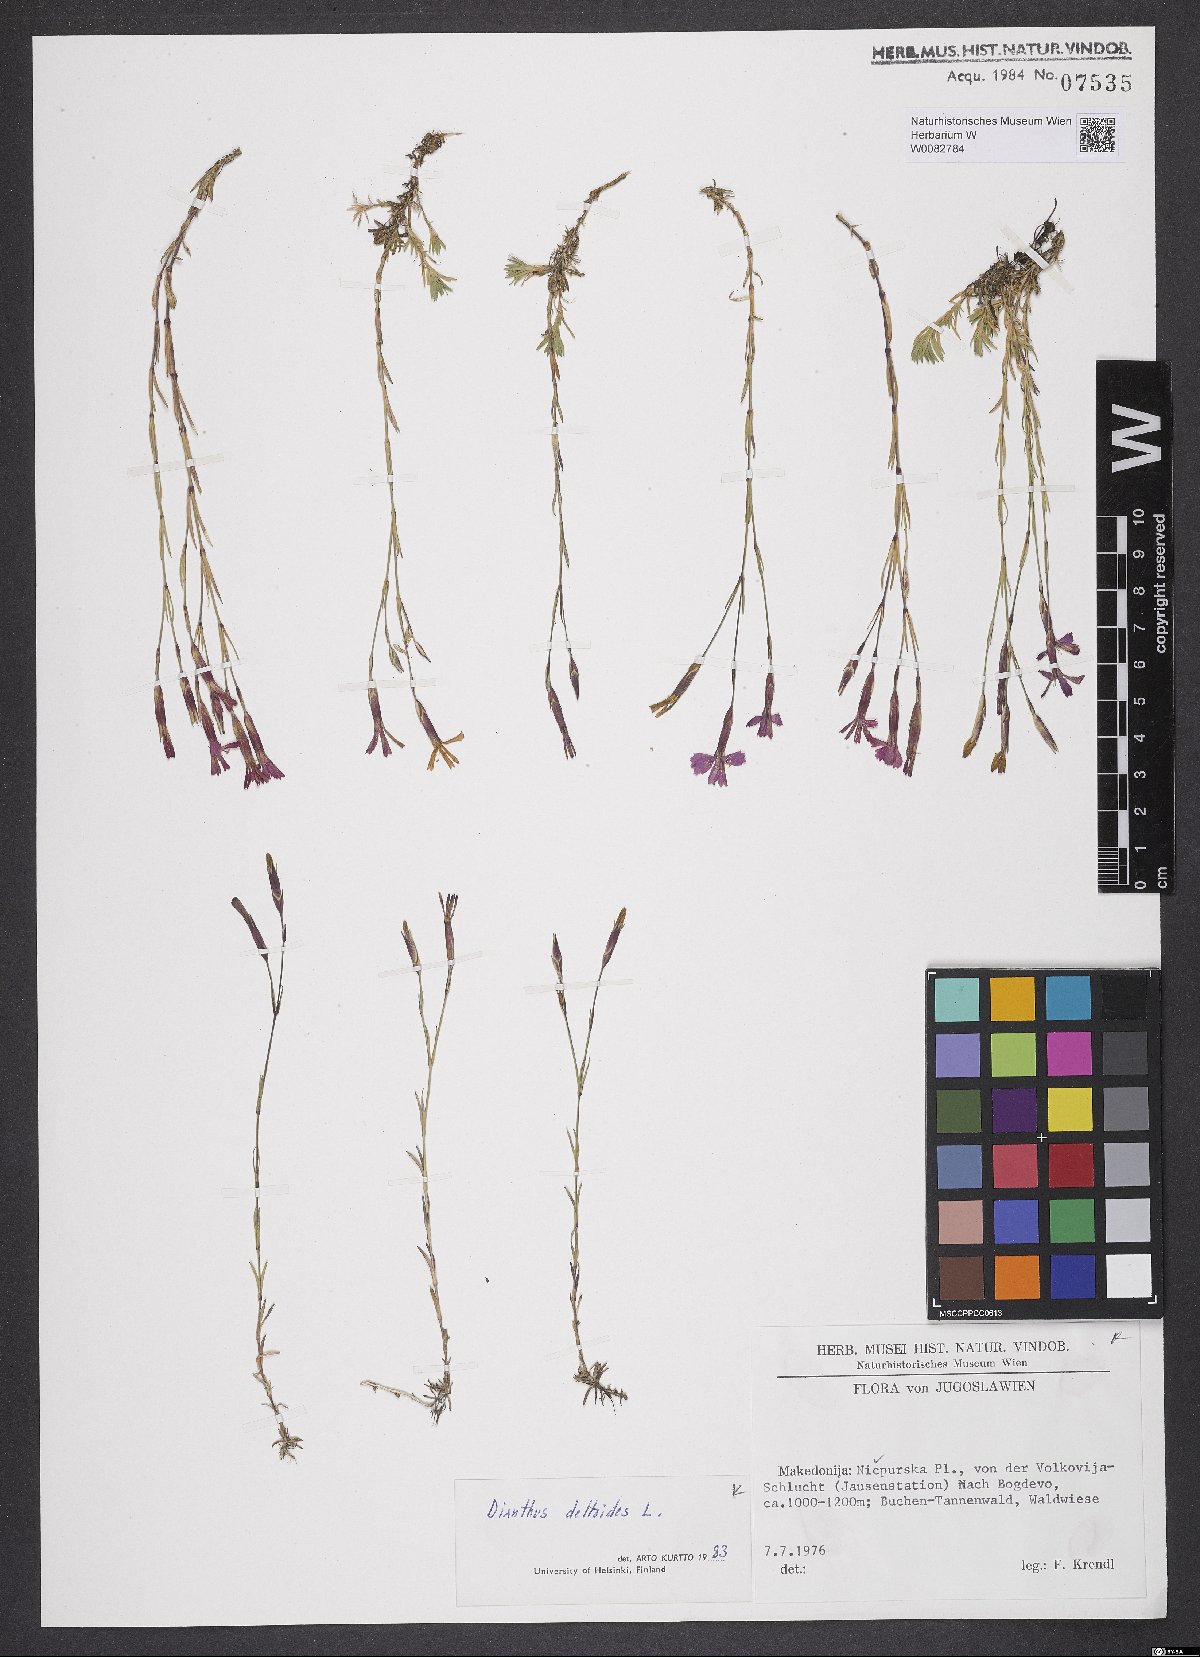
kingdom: Plantae
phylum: Tracheophyta
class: Magnoliopsida
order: Caryophyllales
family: Caryophyllaceae
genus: Dianthus
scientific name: Dianthus deltoides
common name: Maiden pink
